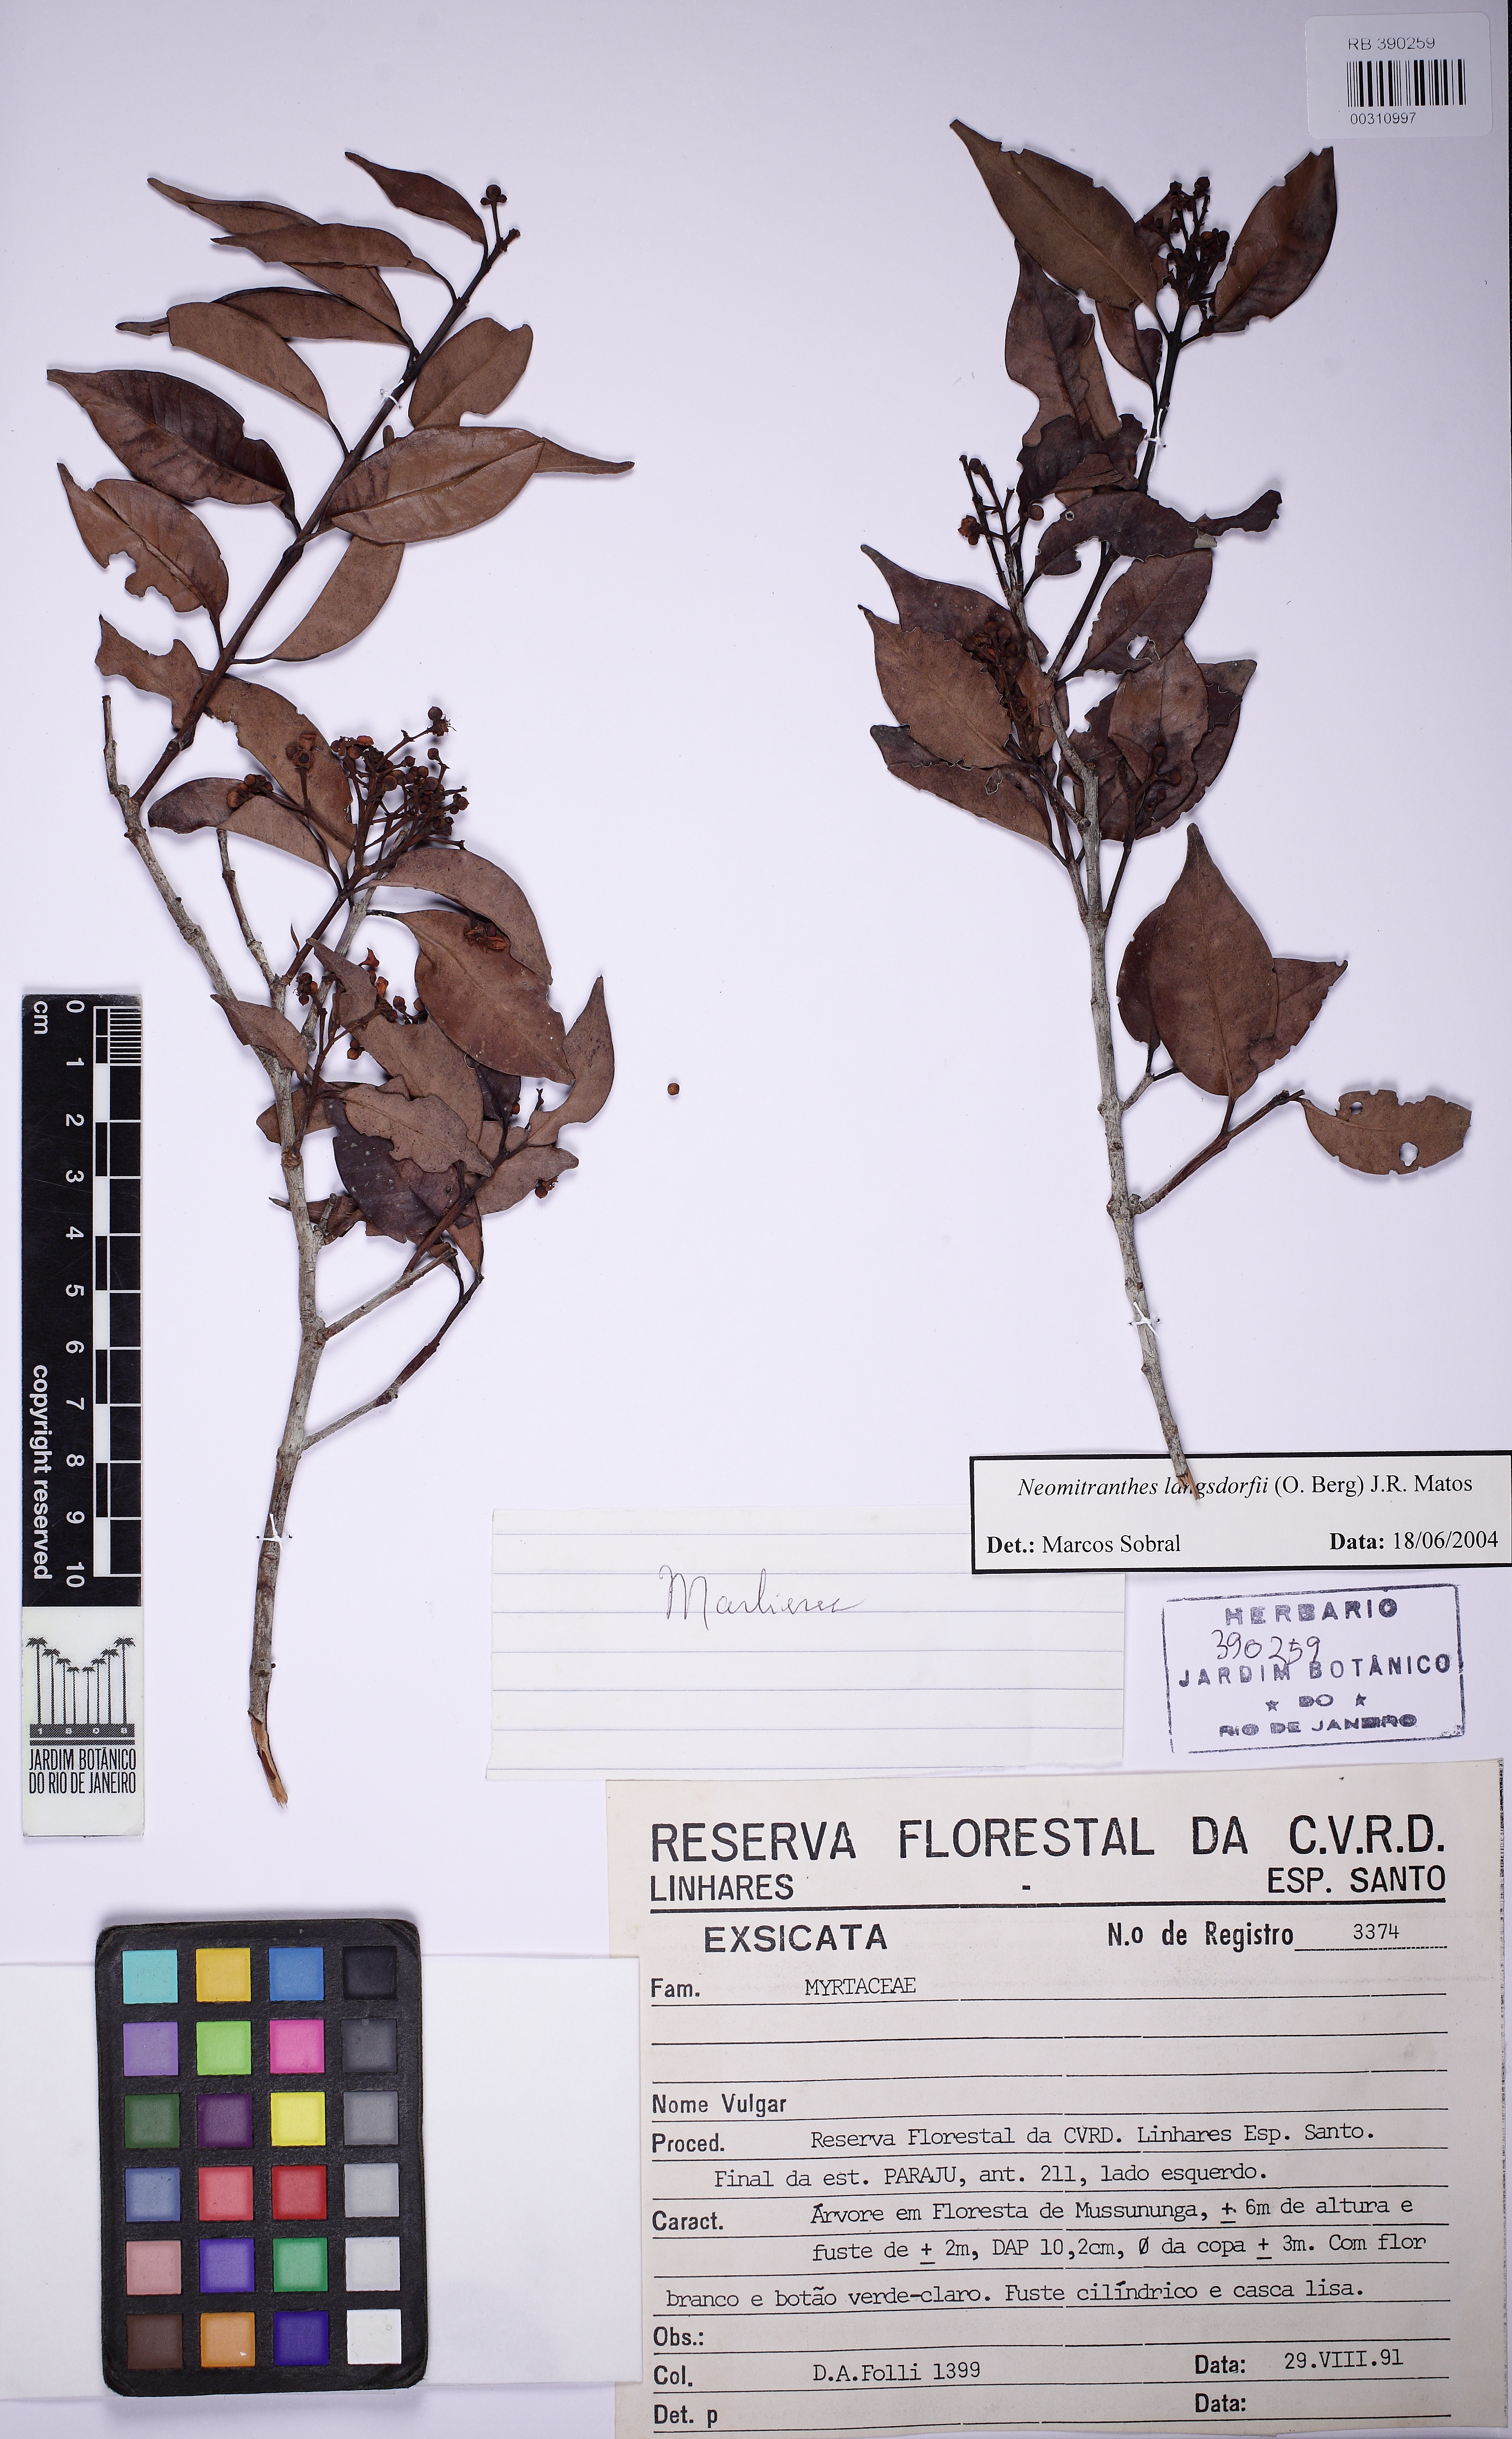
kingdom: Plantae
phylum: Tracheophyta
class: Magnoliopsida
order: Myrtales
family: Myrtaceae
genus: Neomitranthes
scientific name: Neomitranthes langsdorffii
